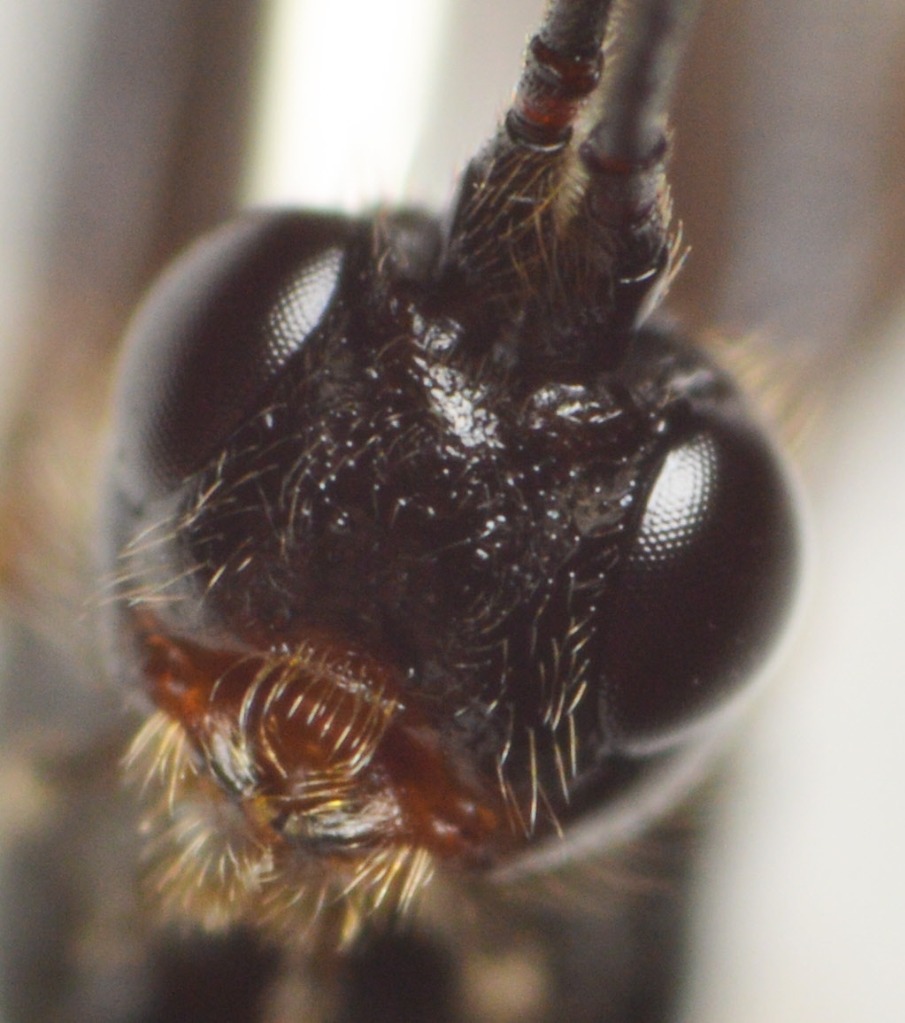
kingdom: Animalia
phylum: Arthropoda
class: Insecta
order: Hymenoptera
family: Braconidae
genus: Coeloides
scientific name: Coeloides filiformis
